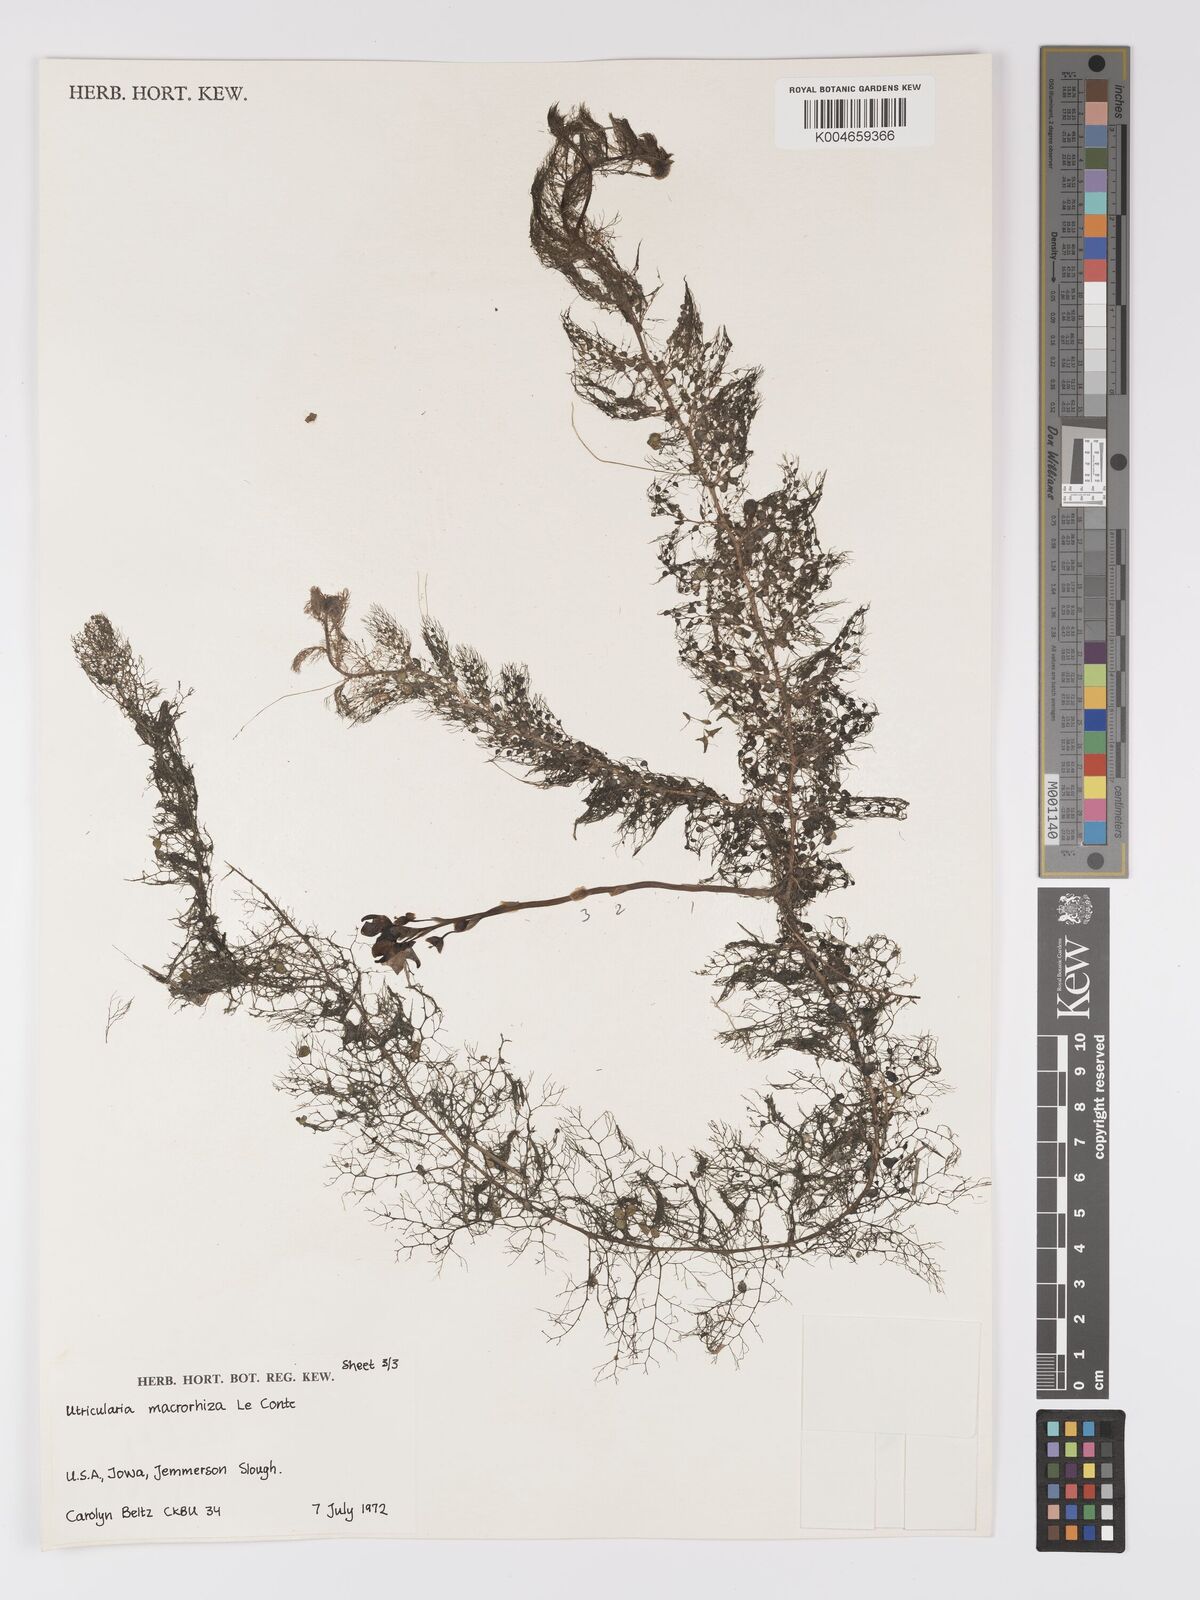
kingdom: Plantae
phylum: Tracheophyta
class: Magnoliopsida
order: Lamiales
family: Lentibulariaceae
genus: Utricularia
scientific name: Utricularia macrorhiza
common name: Common bladderwort
